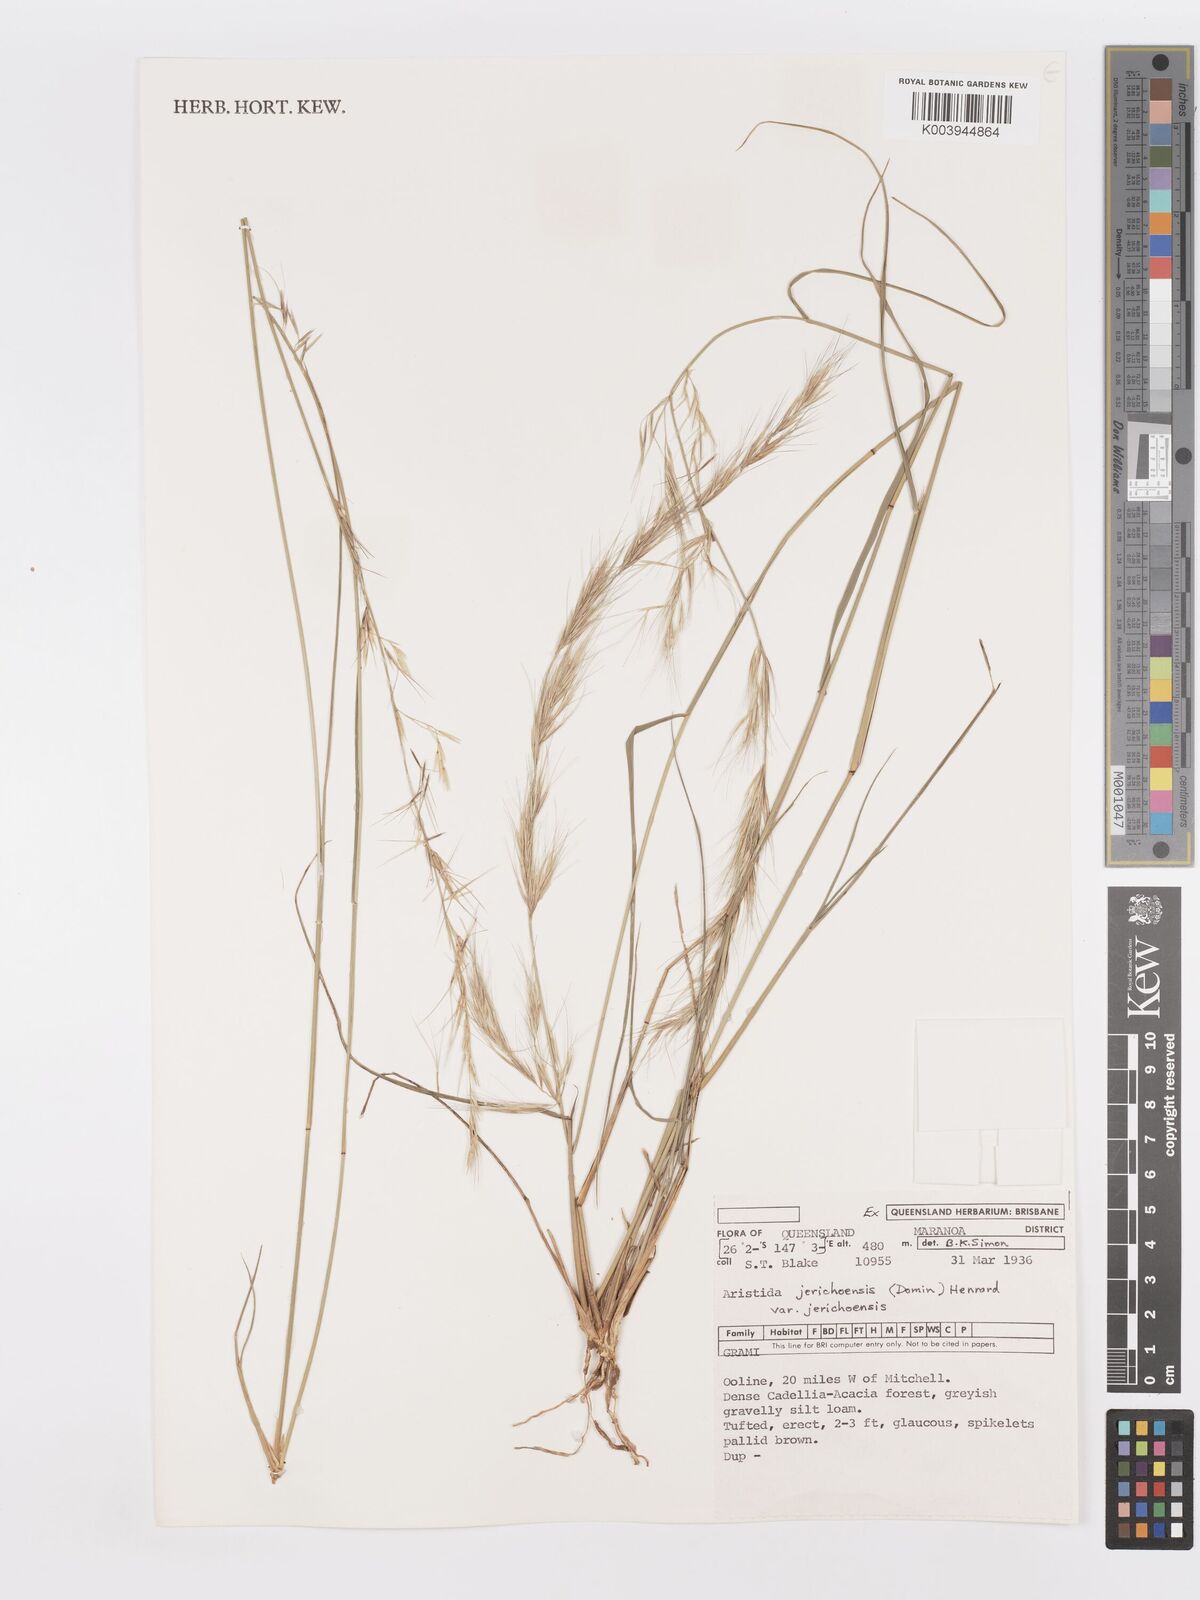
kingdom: Plantae
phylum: Tracheophyta
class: Liliopsida
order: Poales
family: Poaceae
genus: Aristida
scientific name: Aristida jerichoensis
